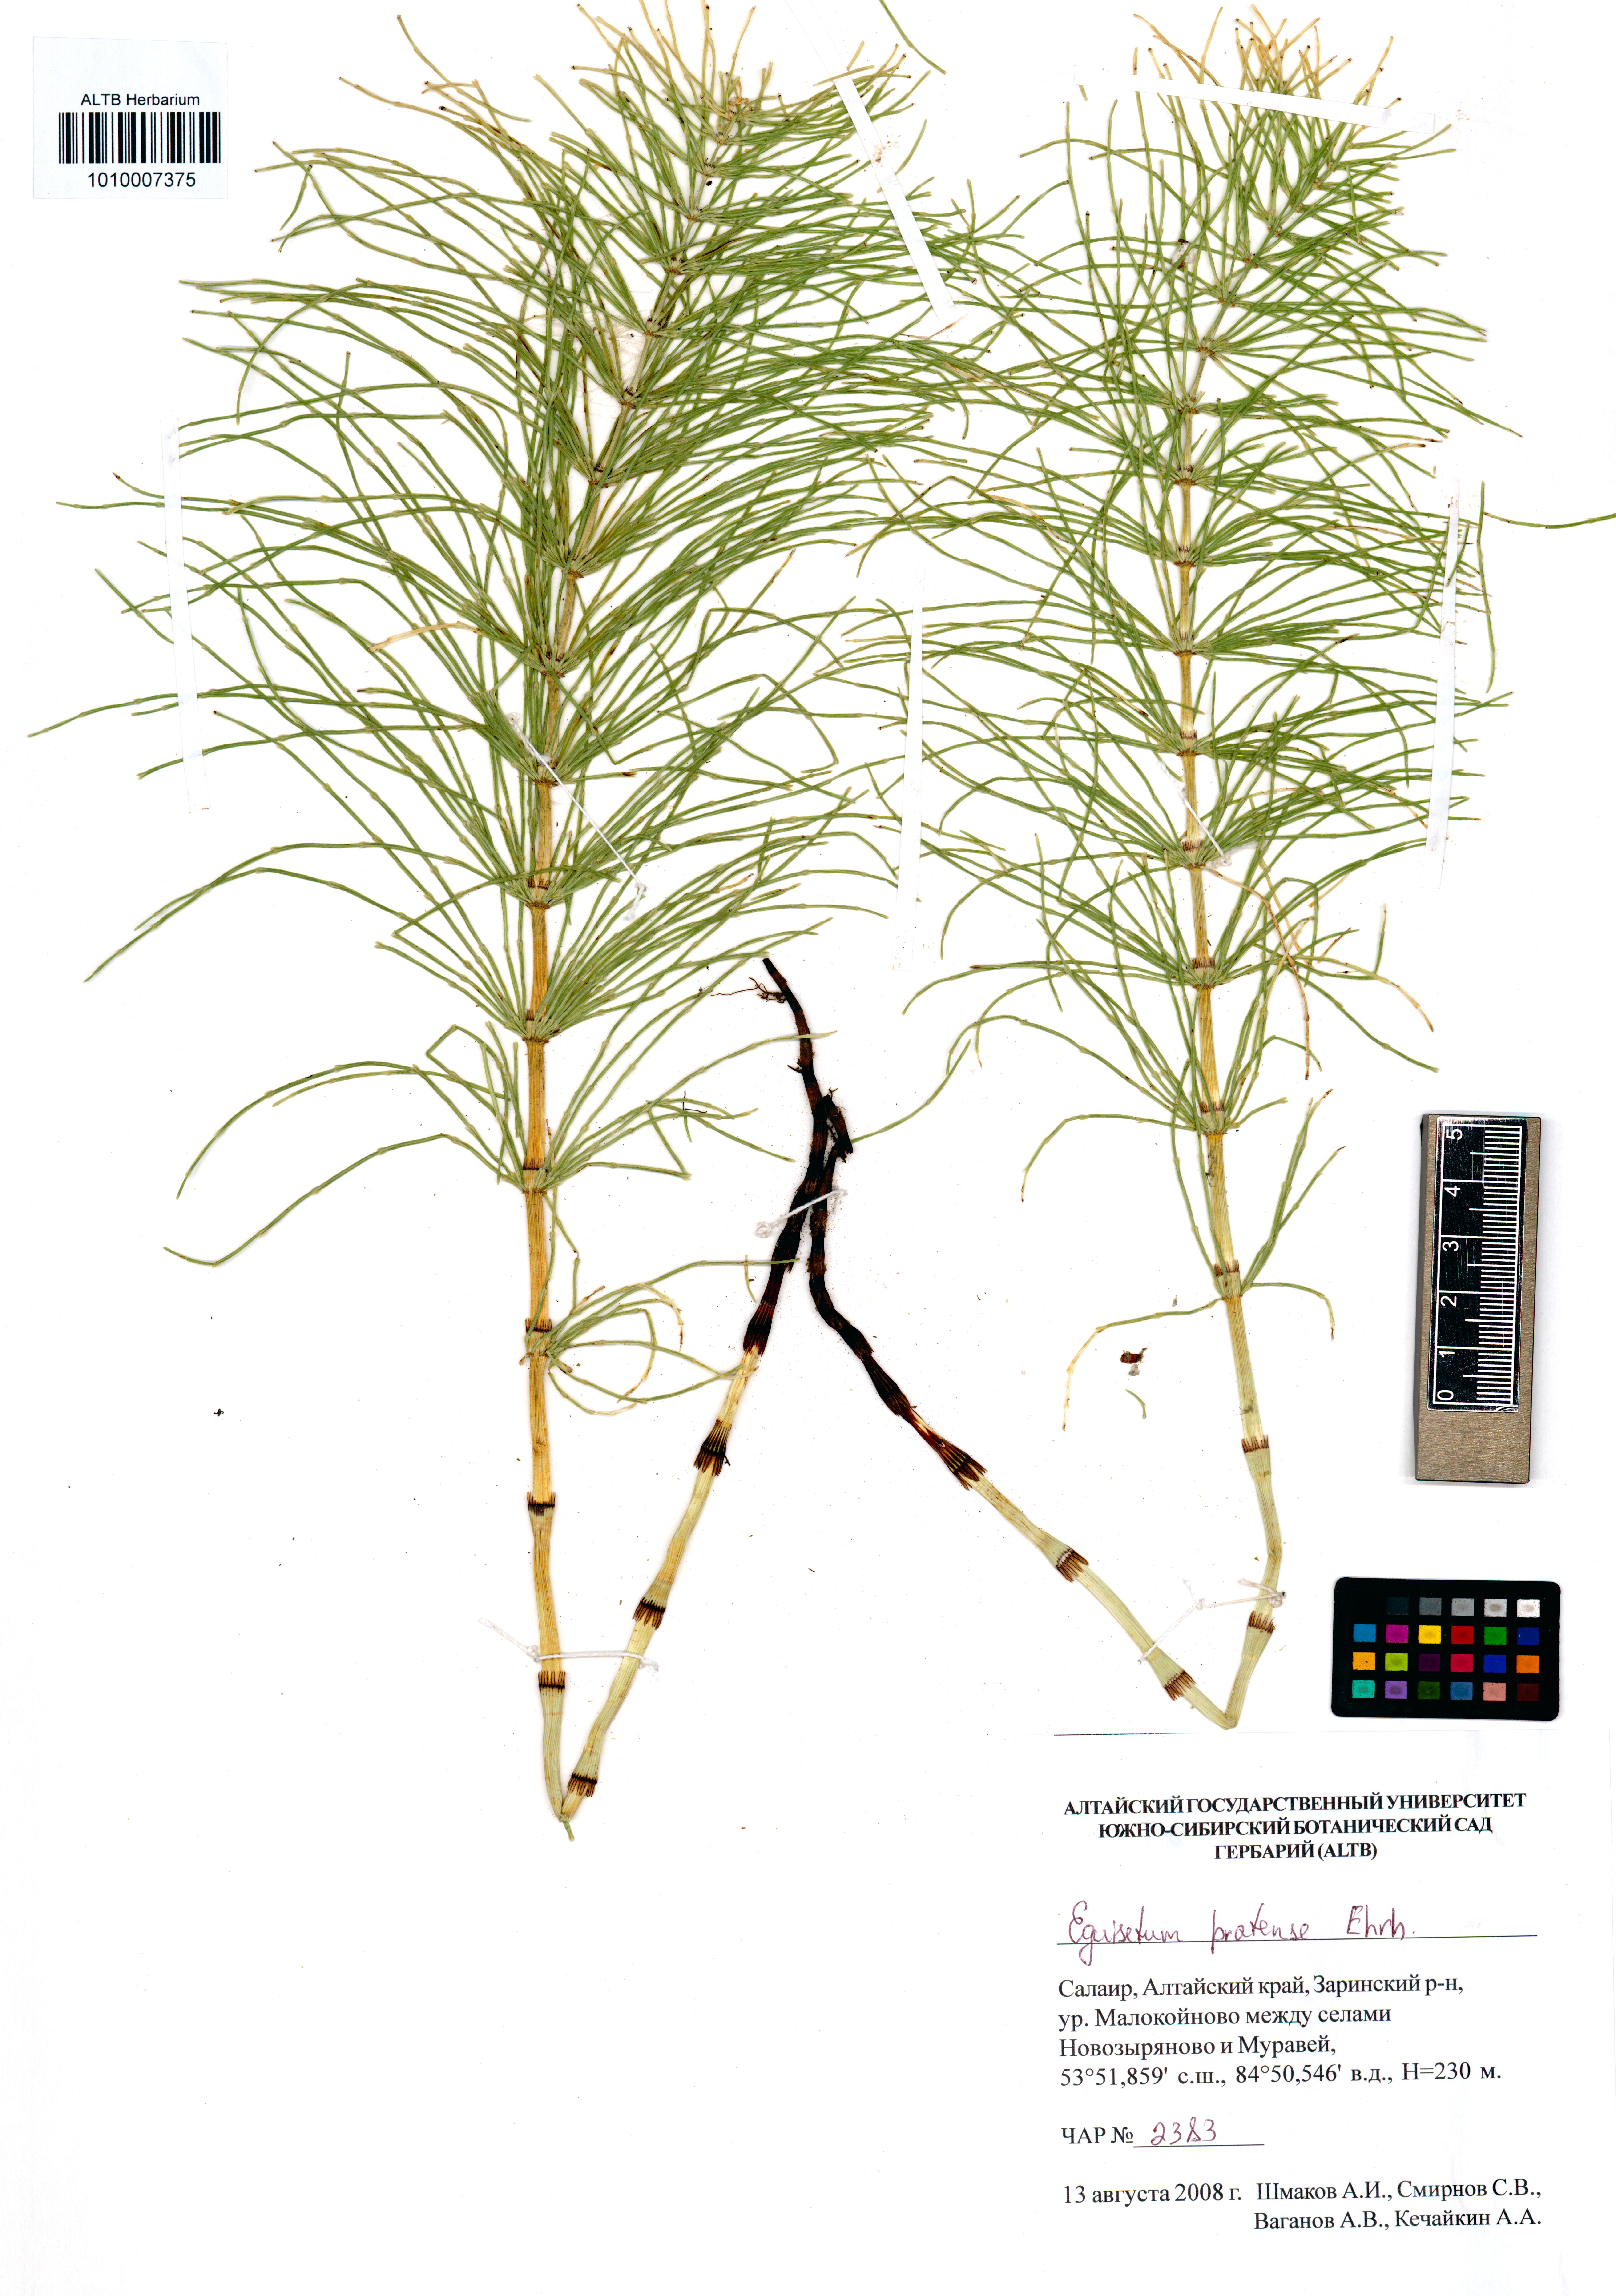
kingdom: Plantae
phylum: Tracheophyta
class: Polypodiopsida
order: Equisetales
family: Equisetaceae
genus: Equisetum
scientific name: Equisetum pratense
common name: Meadow horsetail
